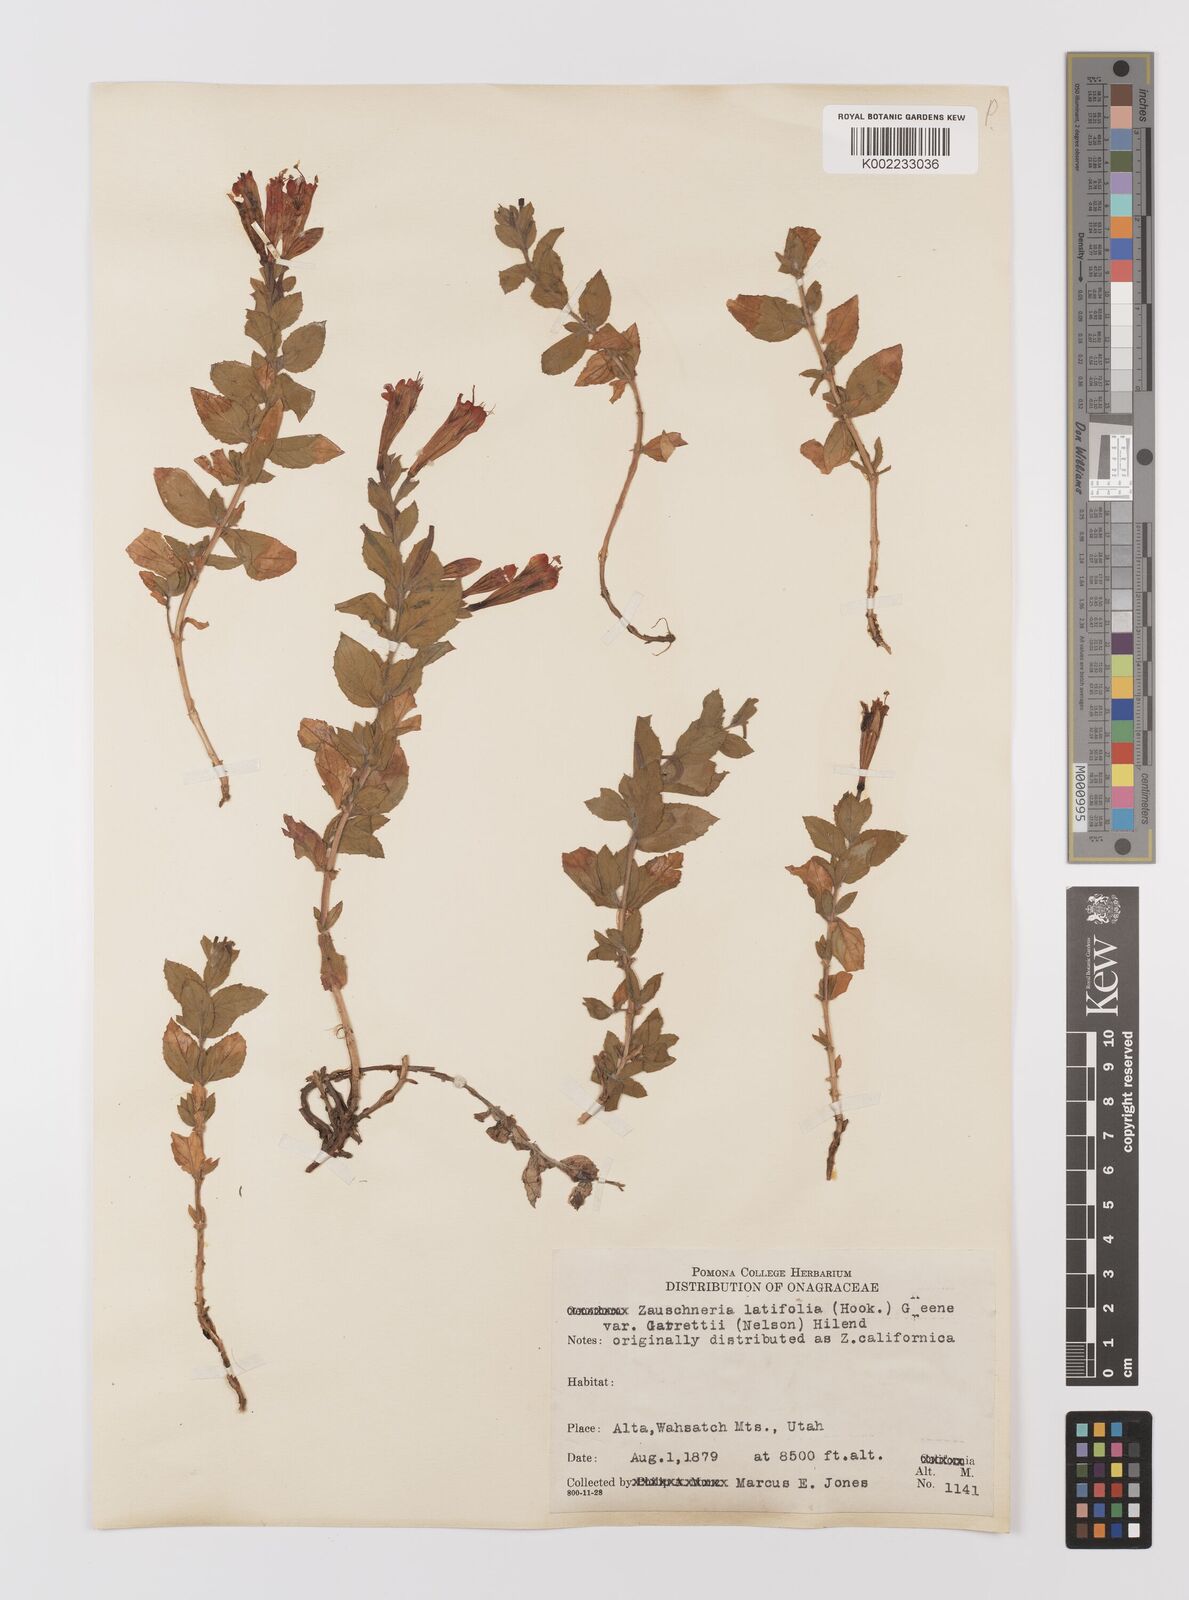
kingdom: Plantae
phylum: Tracheophyta
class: Magnoliopsida
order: Myrtales
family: Onagraceae
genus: Epilobium
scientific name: Epilobium
